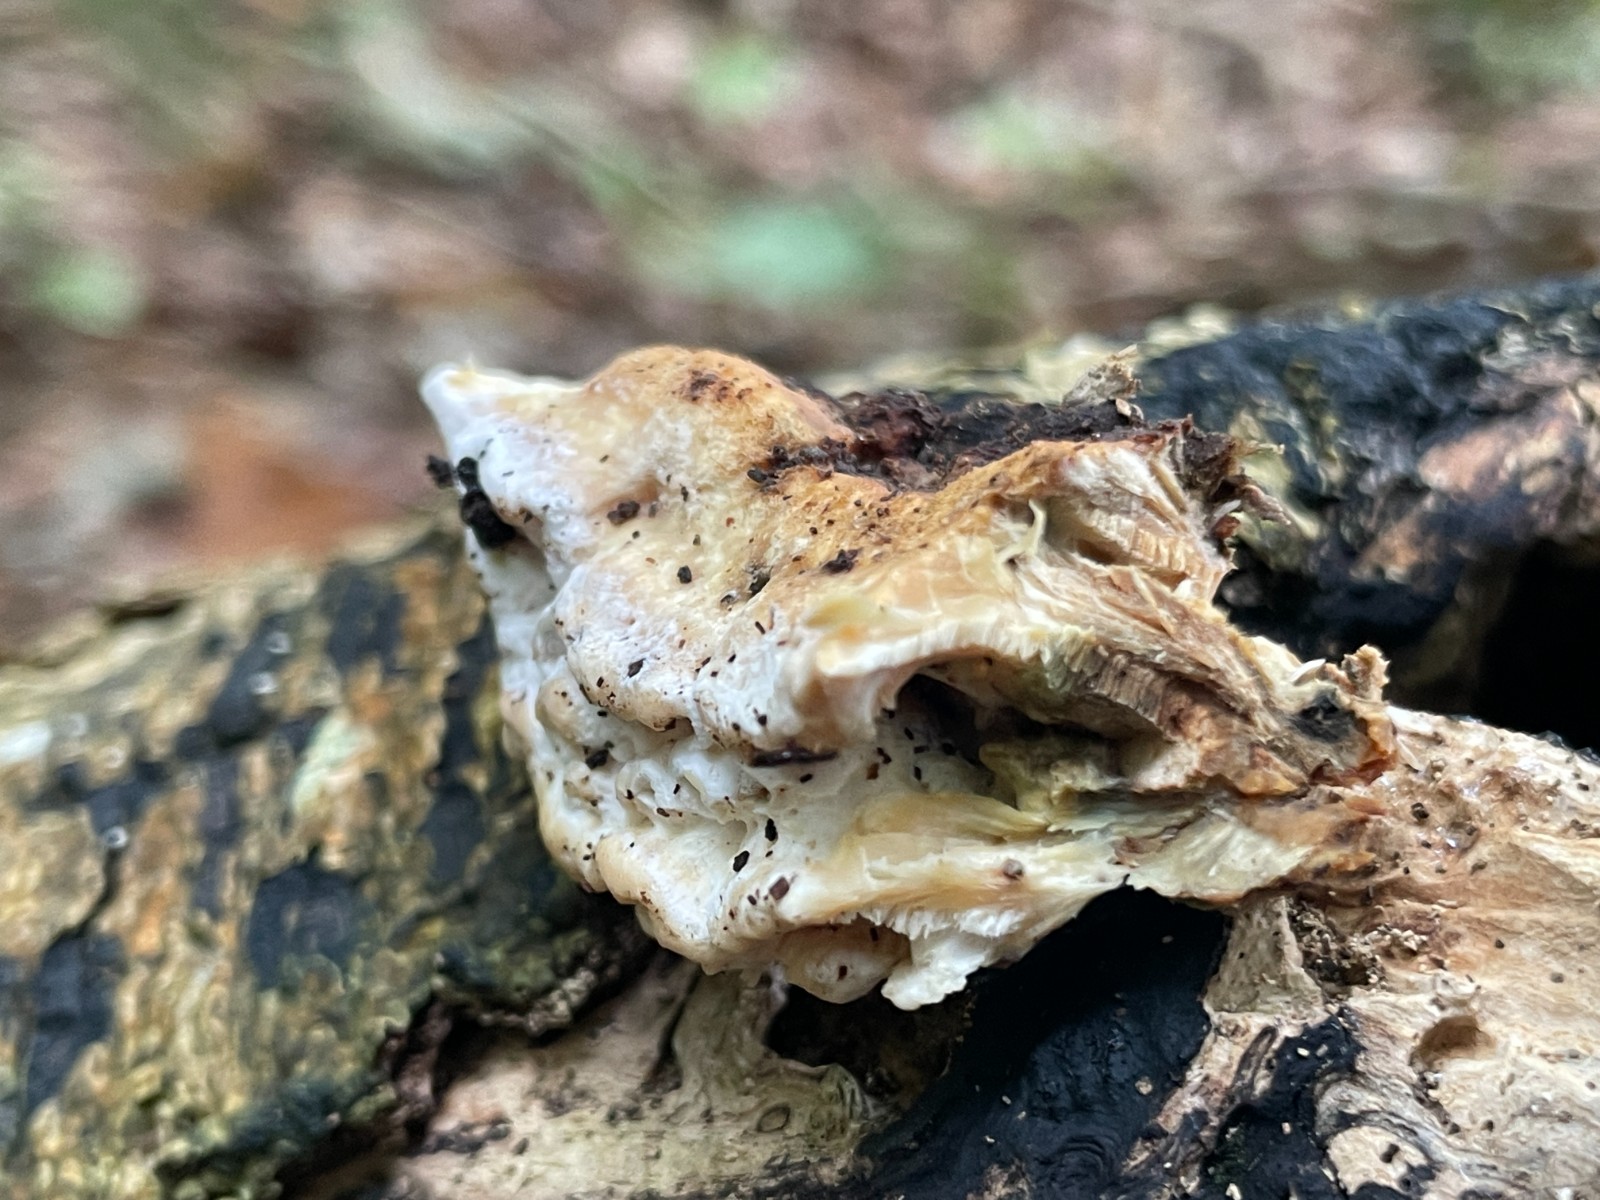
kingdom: Fungi
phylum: Basidiomycota
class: Agaricomycetes
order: Polyporales
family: Phanerochaetaceae
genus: Bjerkandera
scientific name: Bjerkandera fumosa
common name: grågul sodporesvamp
